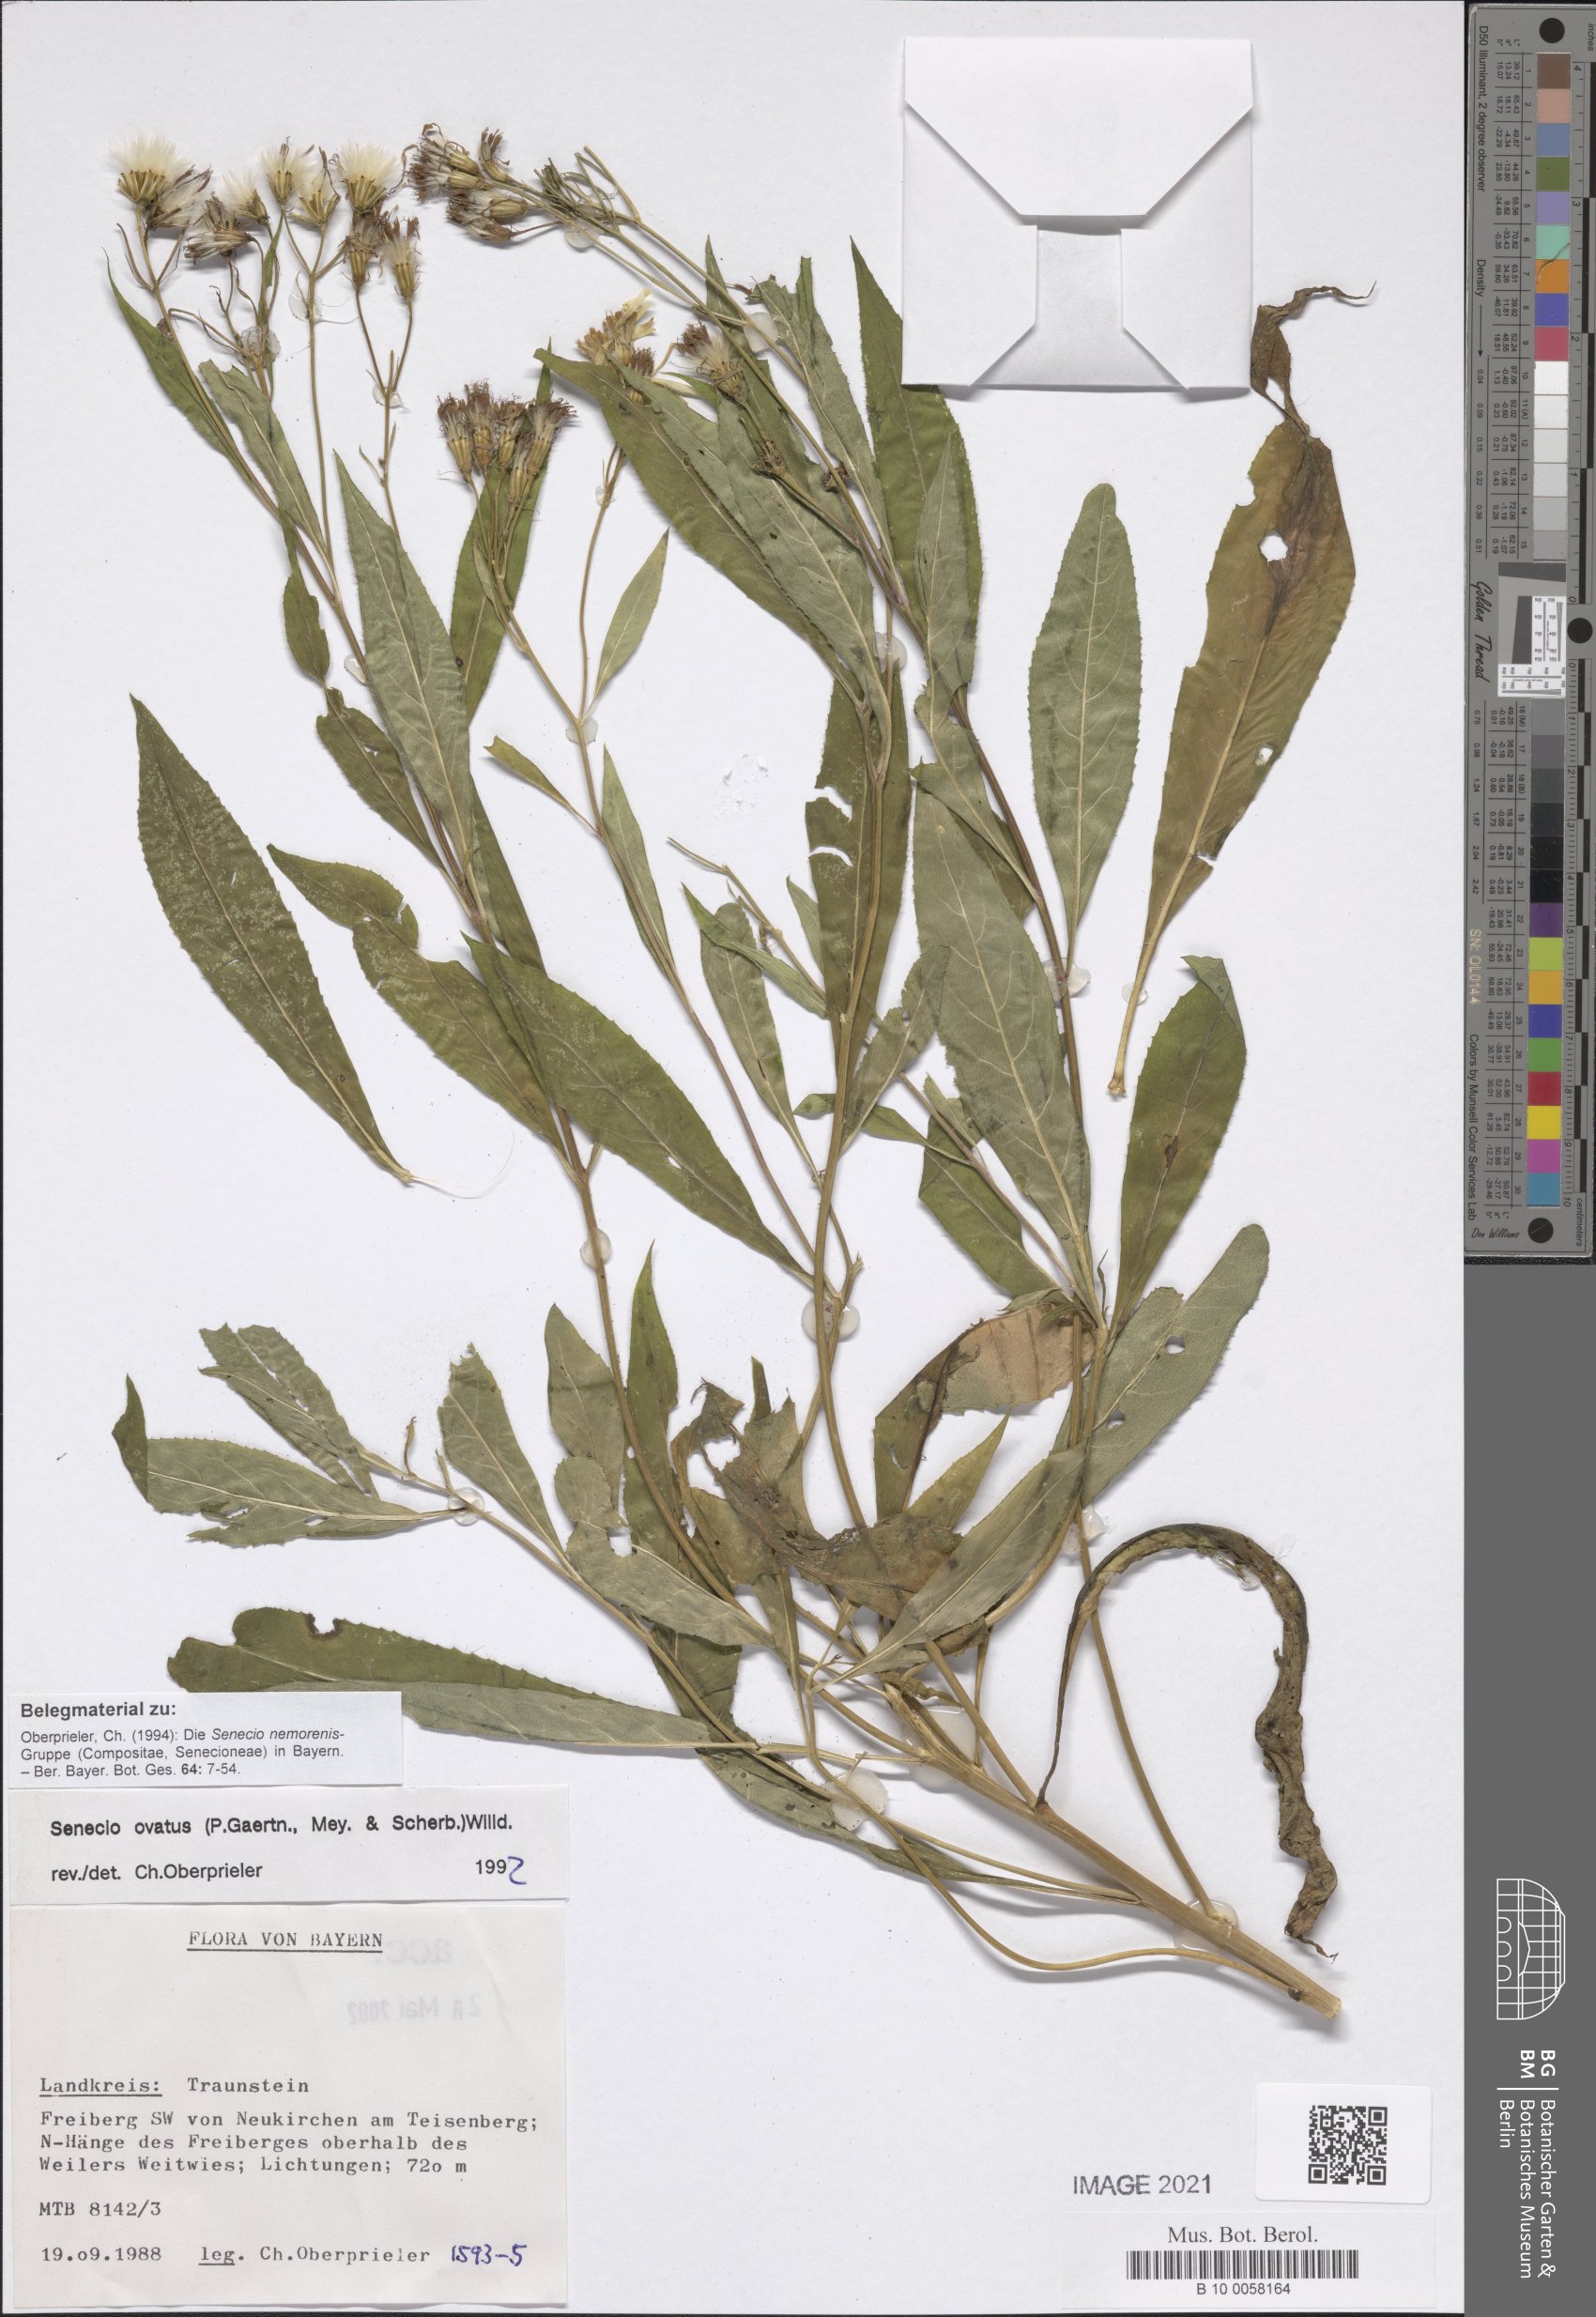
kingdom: Plantae
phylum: Tracheophyta
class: Magnoliopsida
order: Asterales
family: Asteraceae
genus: Senecio
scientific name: Senecio ovatus
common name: Wood ragwort
